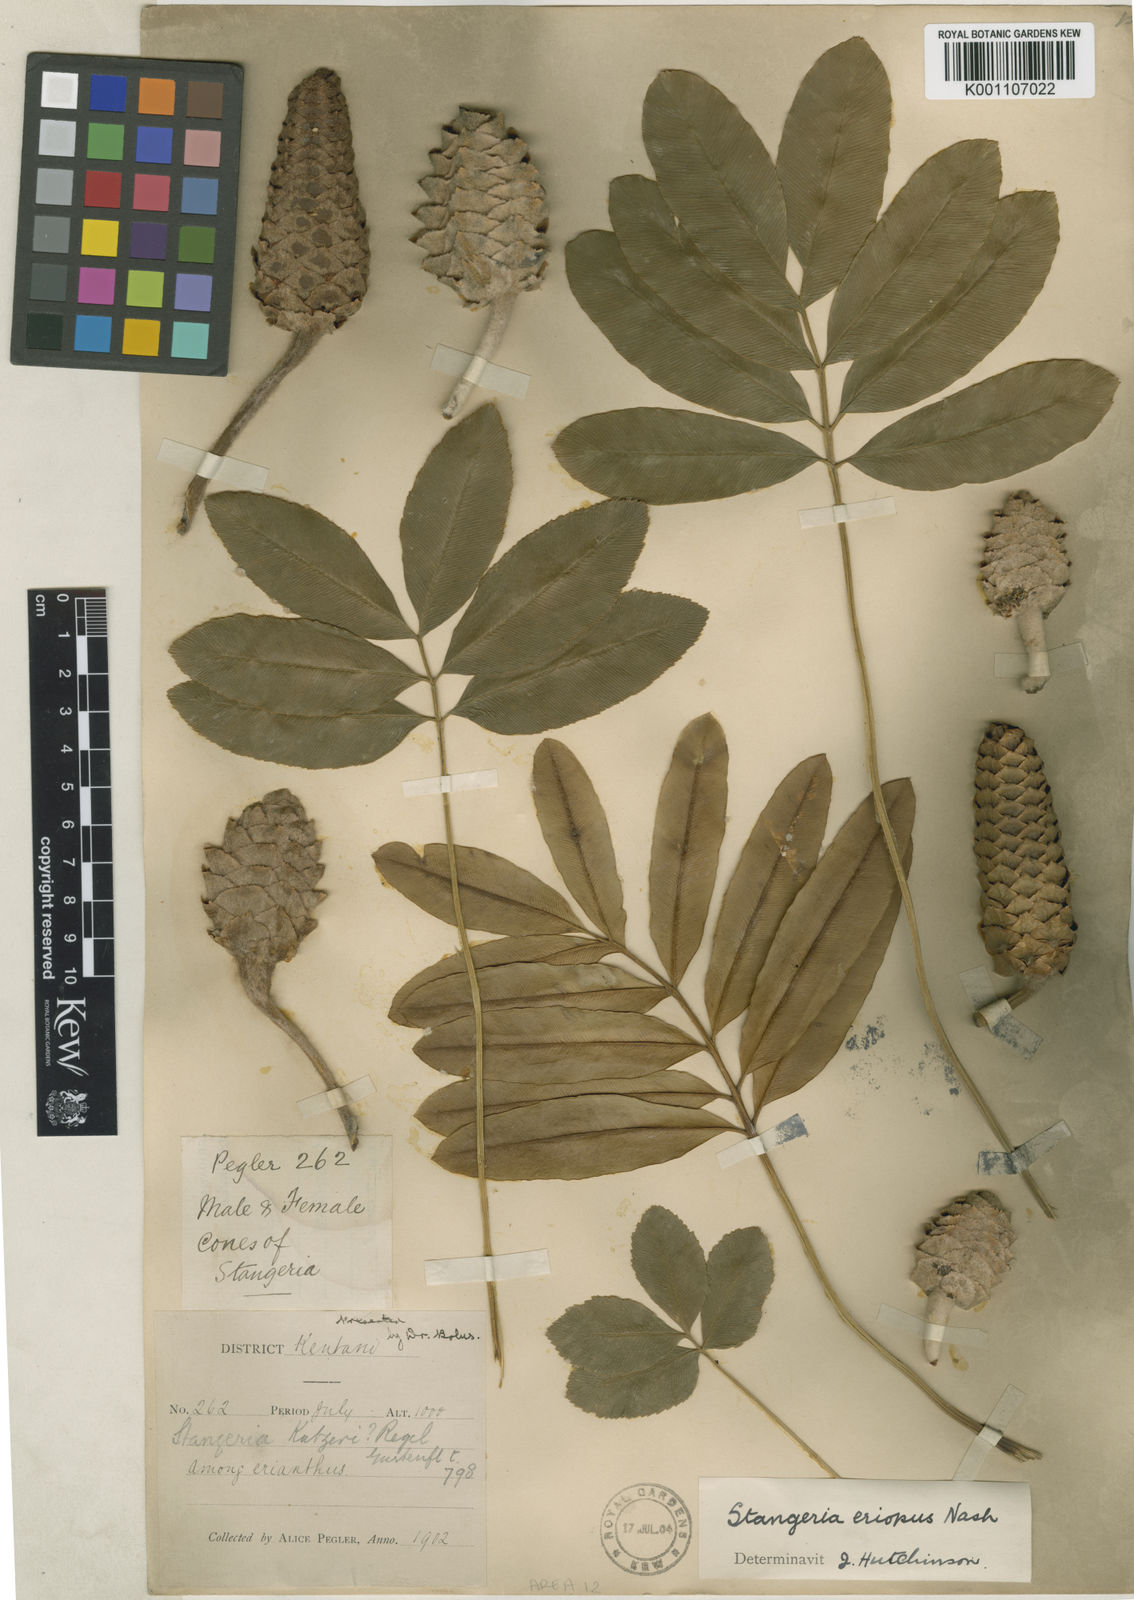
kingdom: Plantae
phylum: Tracheophyta
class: Cycadopsida
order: Cycadales
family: Zamiaceae
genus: Stangeria
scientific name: Stangeria
